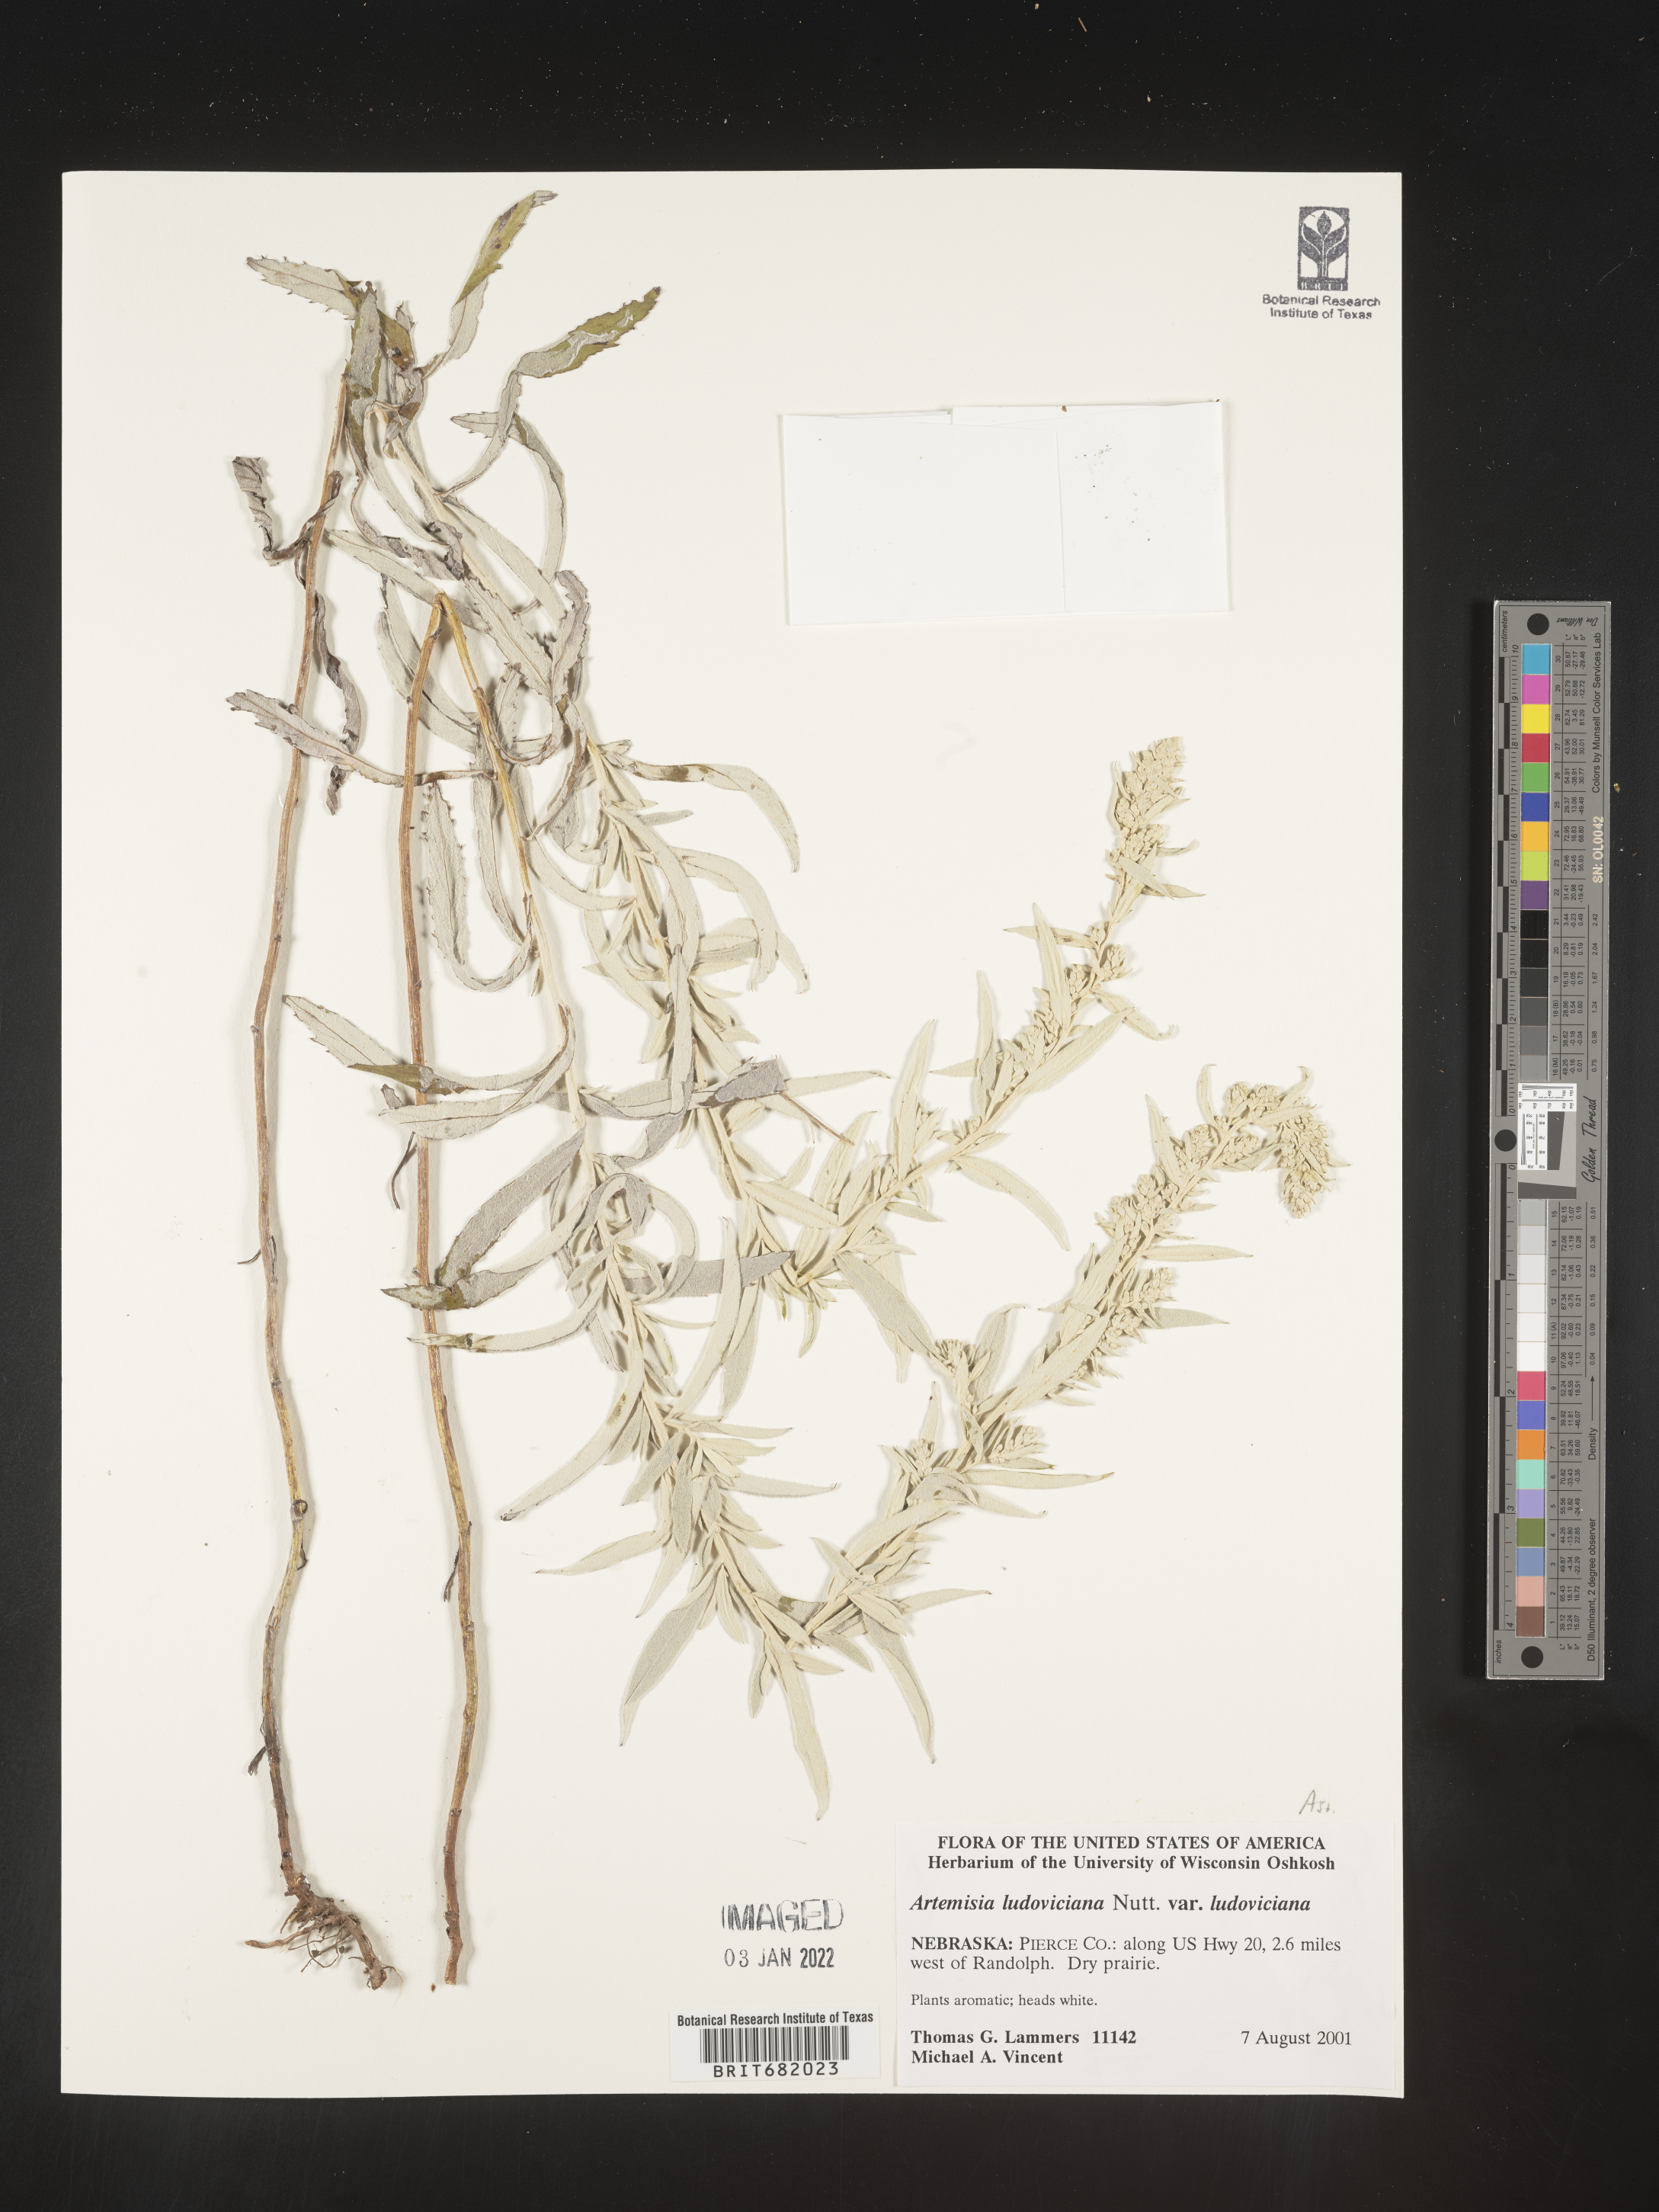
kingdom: Plantae
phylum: Tracheophyta
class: Magnoliopsida
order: Asterales
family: Asteraceae
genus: Artemisia
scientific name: Artemisia ludoviciana
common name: Western mugwort
